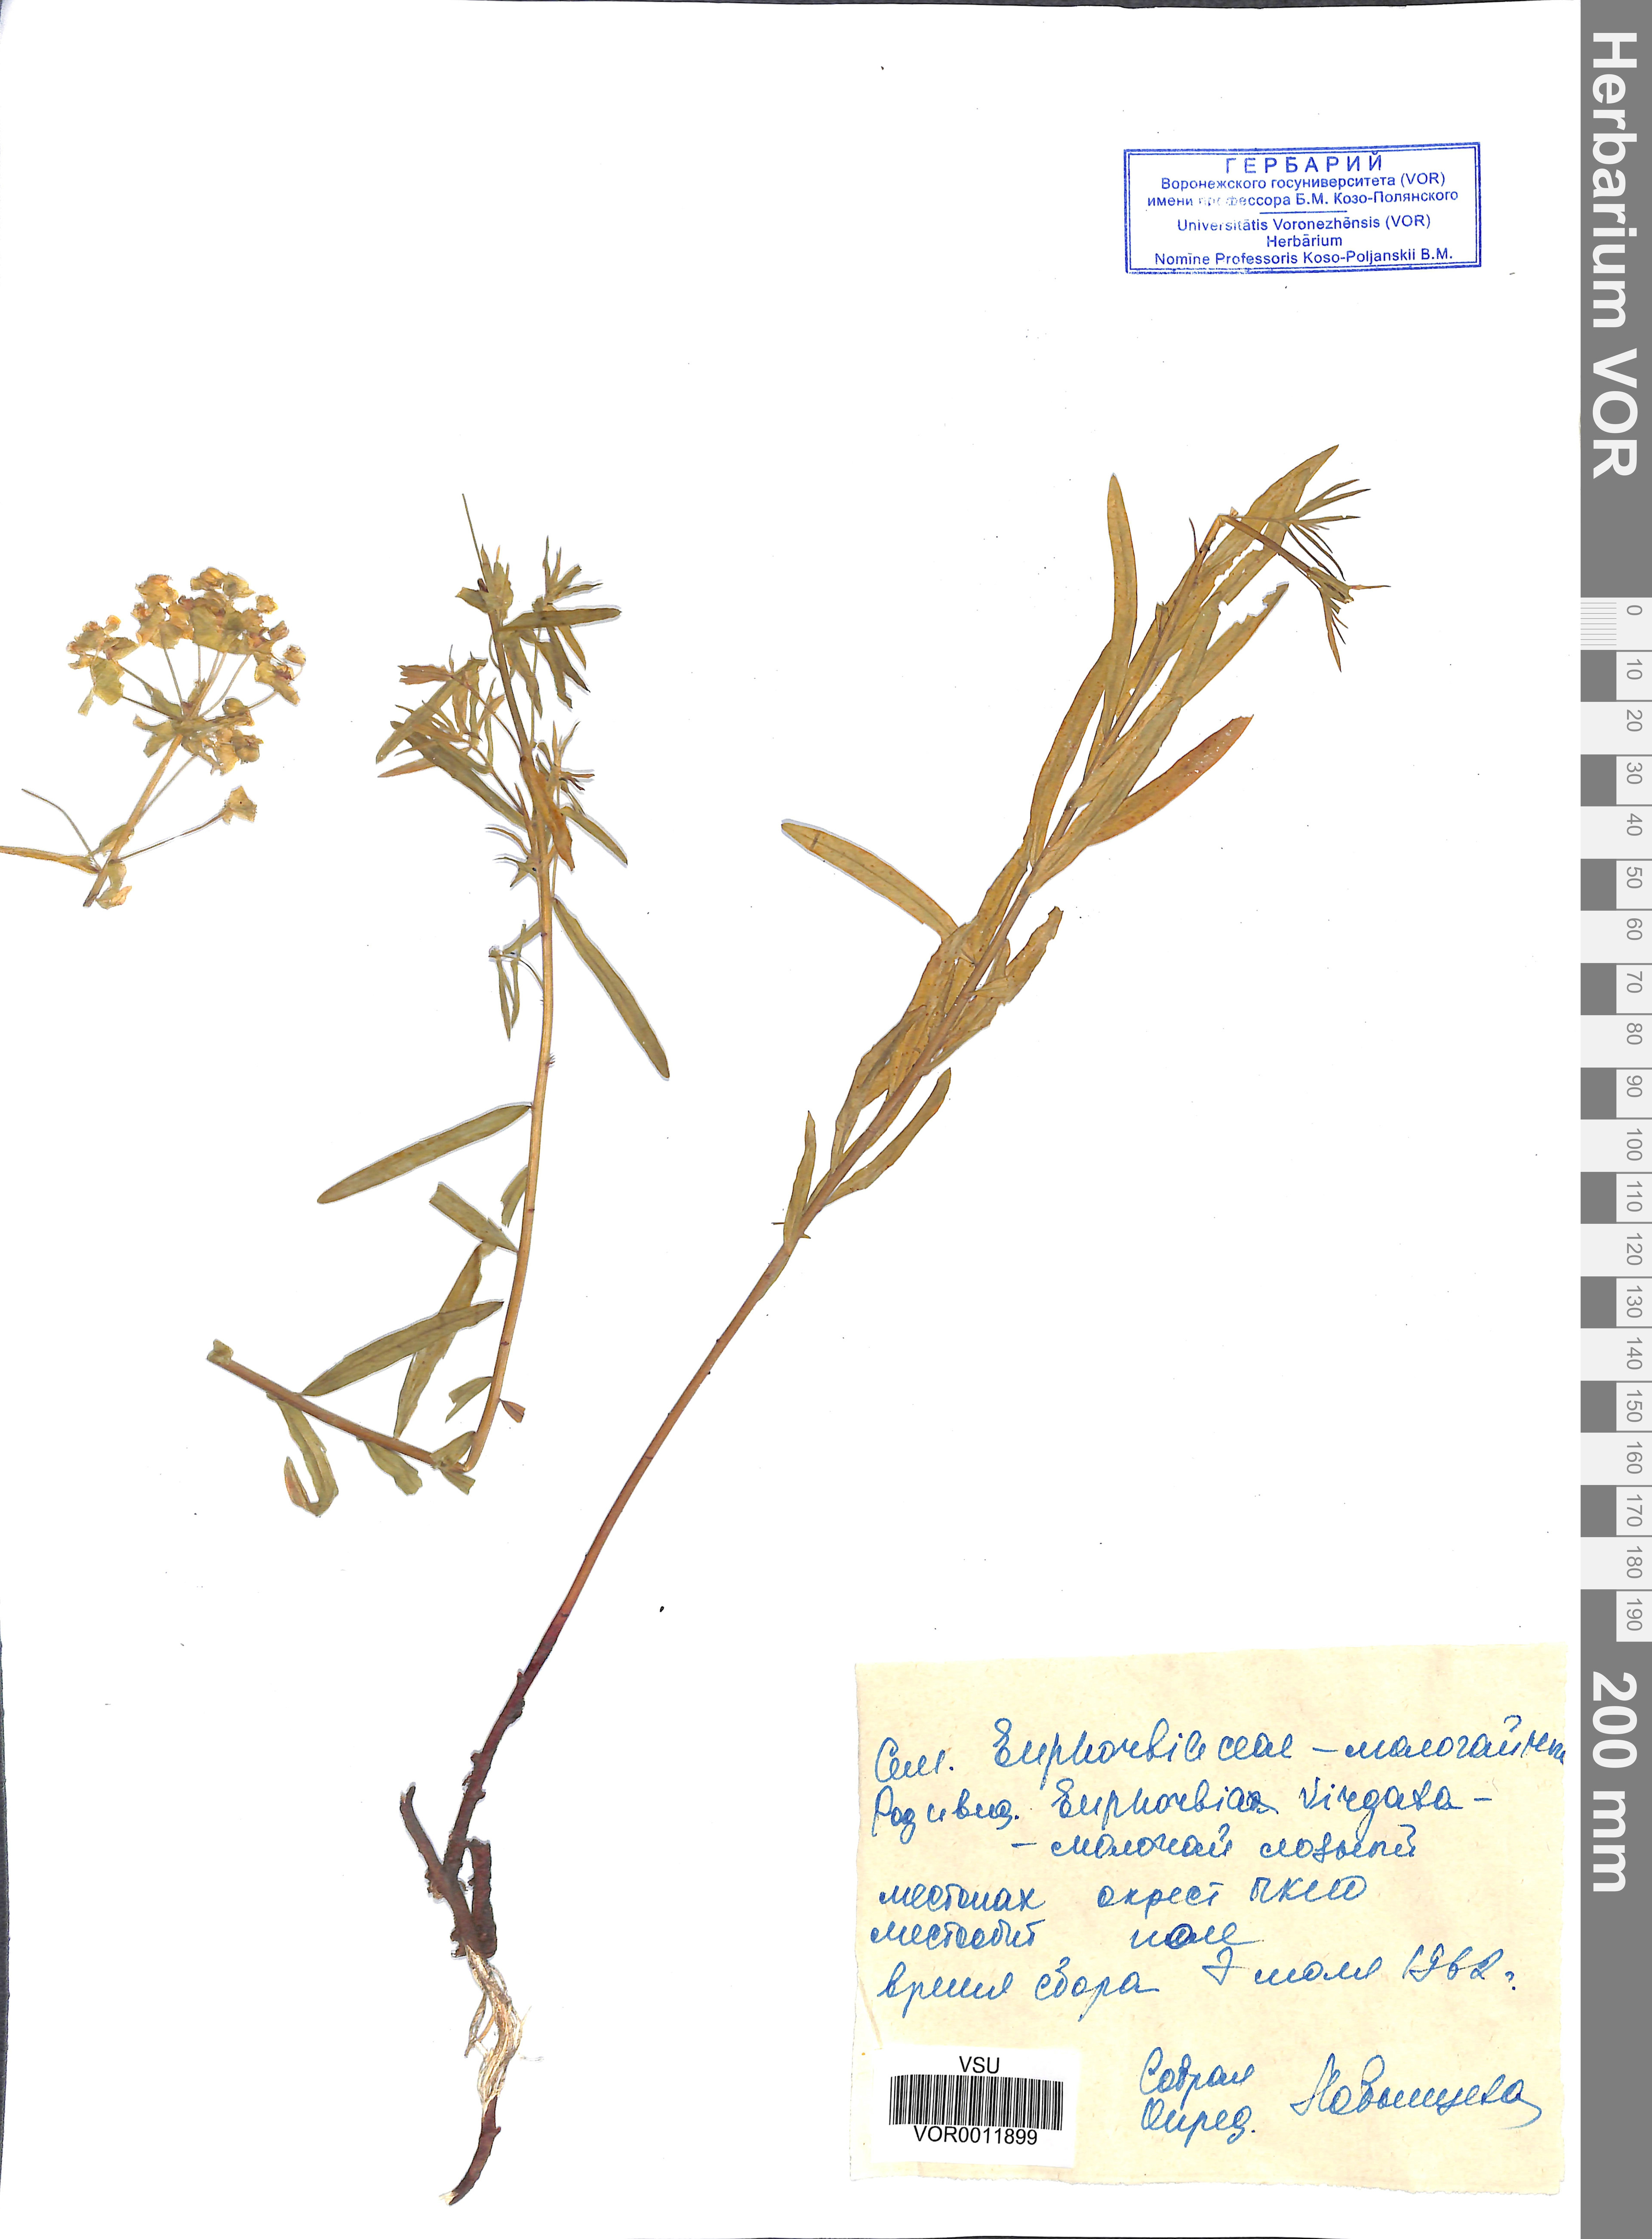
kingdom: Plantae
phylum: Tracheophyta
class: Magnoliopsida
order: Malpighiales
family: Euphorbiaceae
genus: Euphorbia
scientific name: Euphorbia virgata
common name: Leafy spurge
